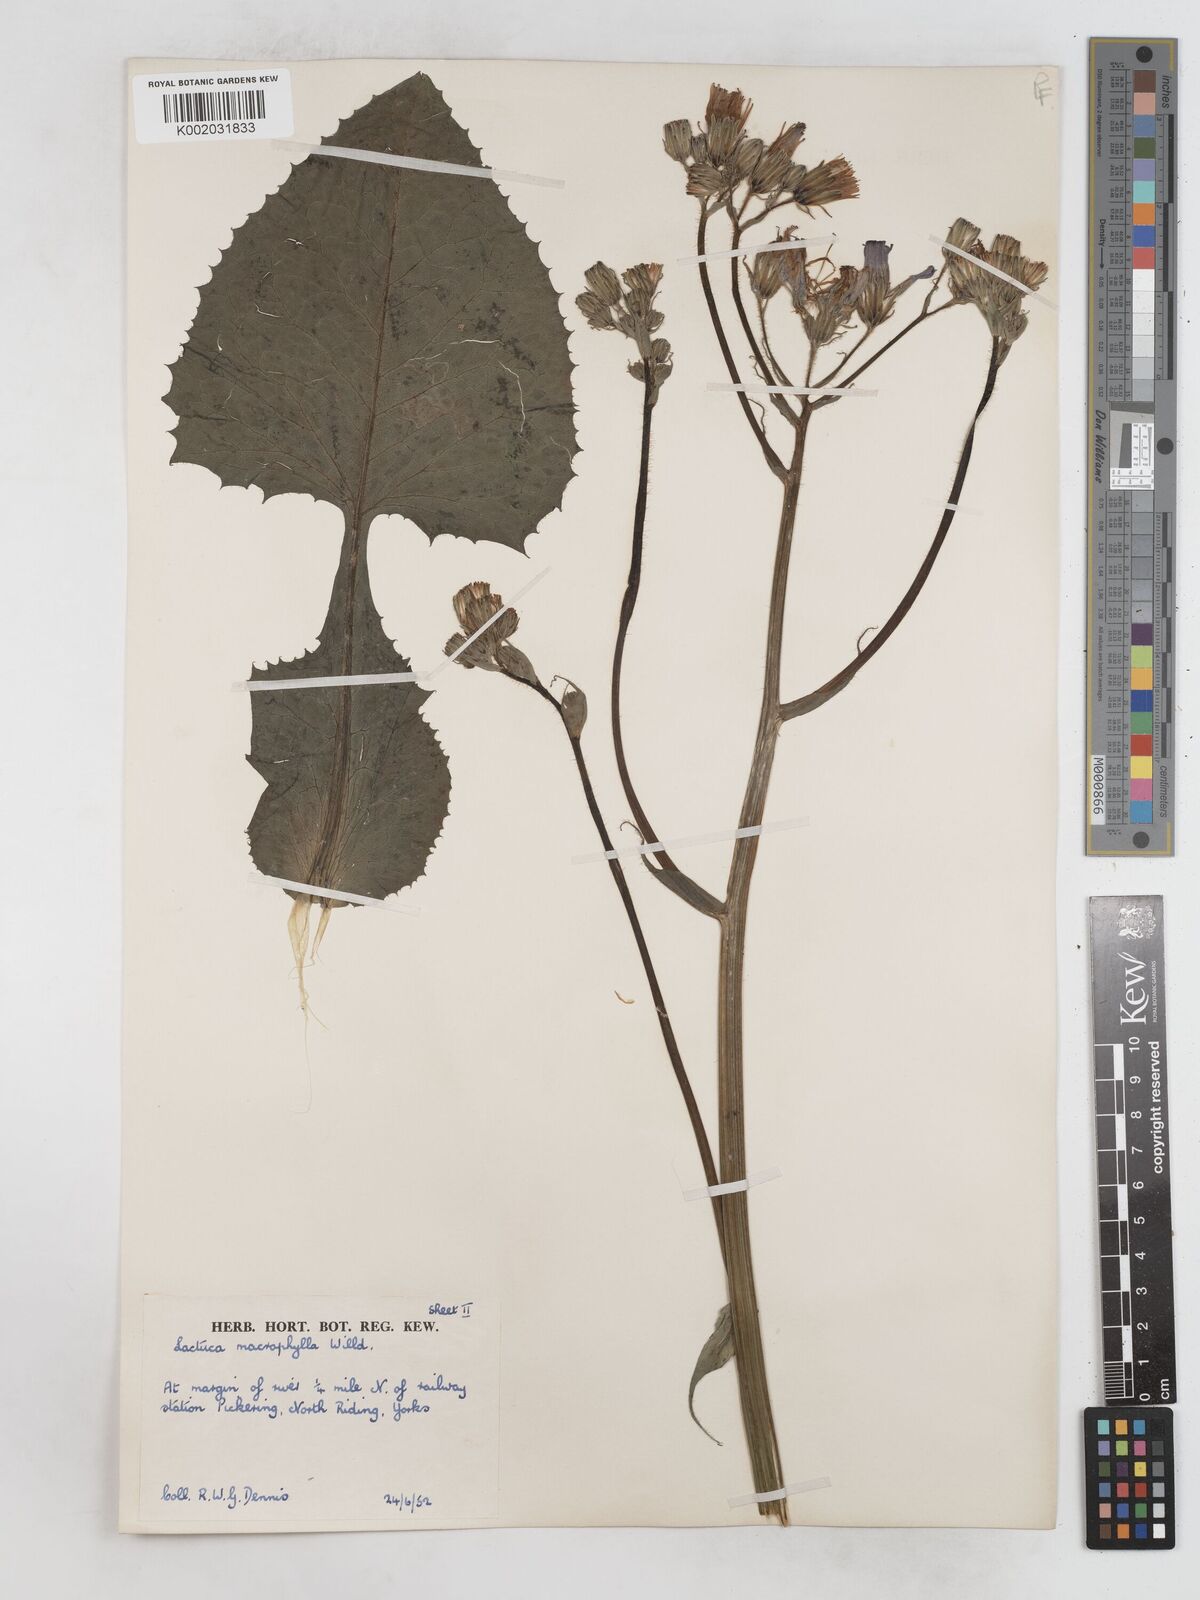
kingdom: Plantae
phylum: Tracheophyta
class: Magnoliopsida
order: Asterales
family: Asteraceae
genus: Lactuca
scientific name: Lactuca macrophylla
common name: Common blue-sow-thistle
